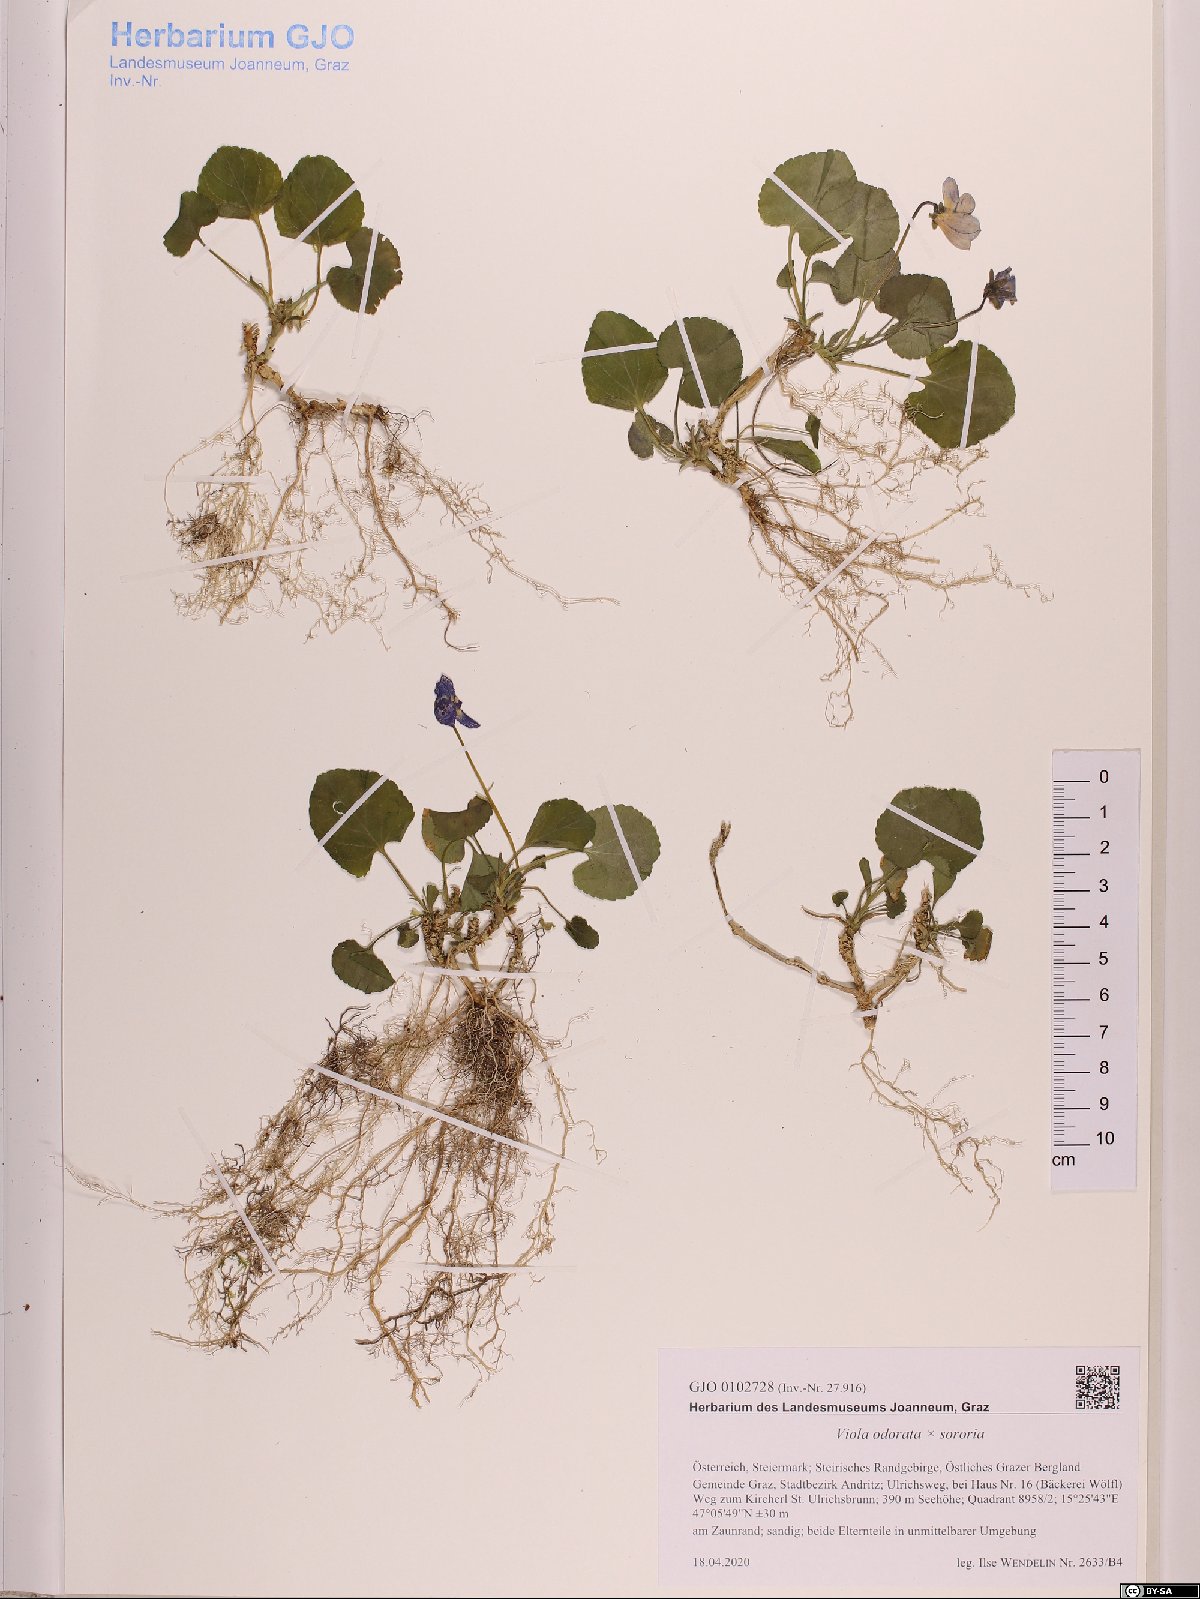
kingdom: Plantae
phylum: Tracheophyta
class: Magnoliopsida
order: Malpighiales
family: Violaceae
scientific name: Violaceae
